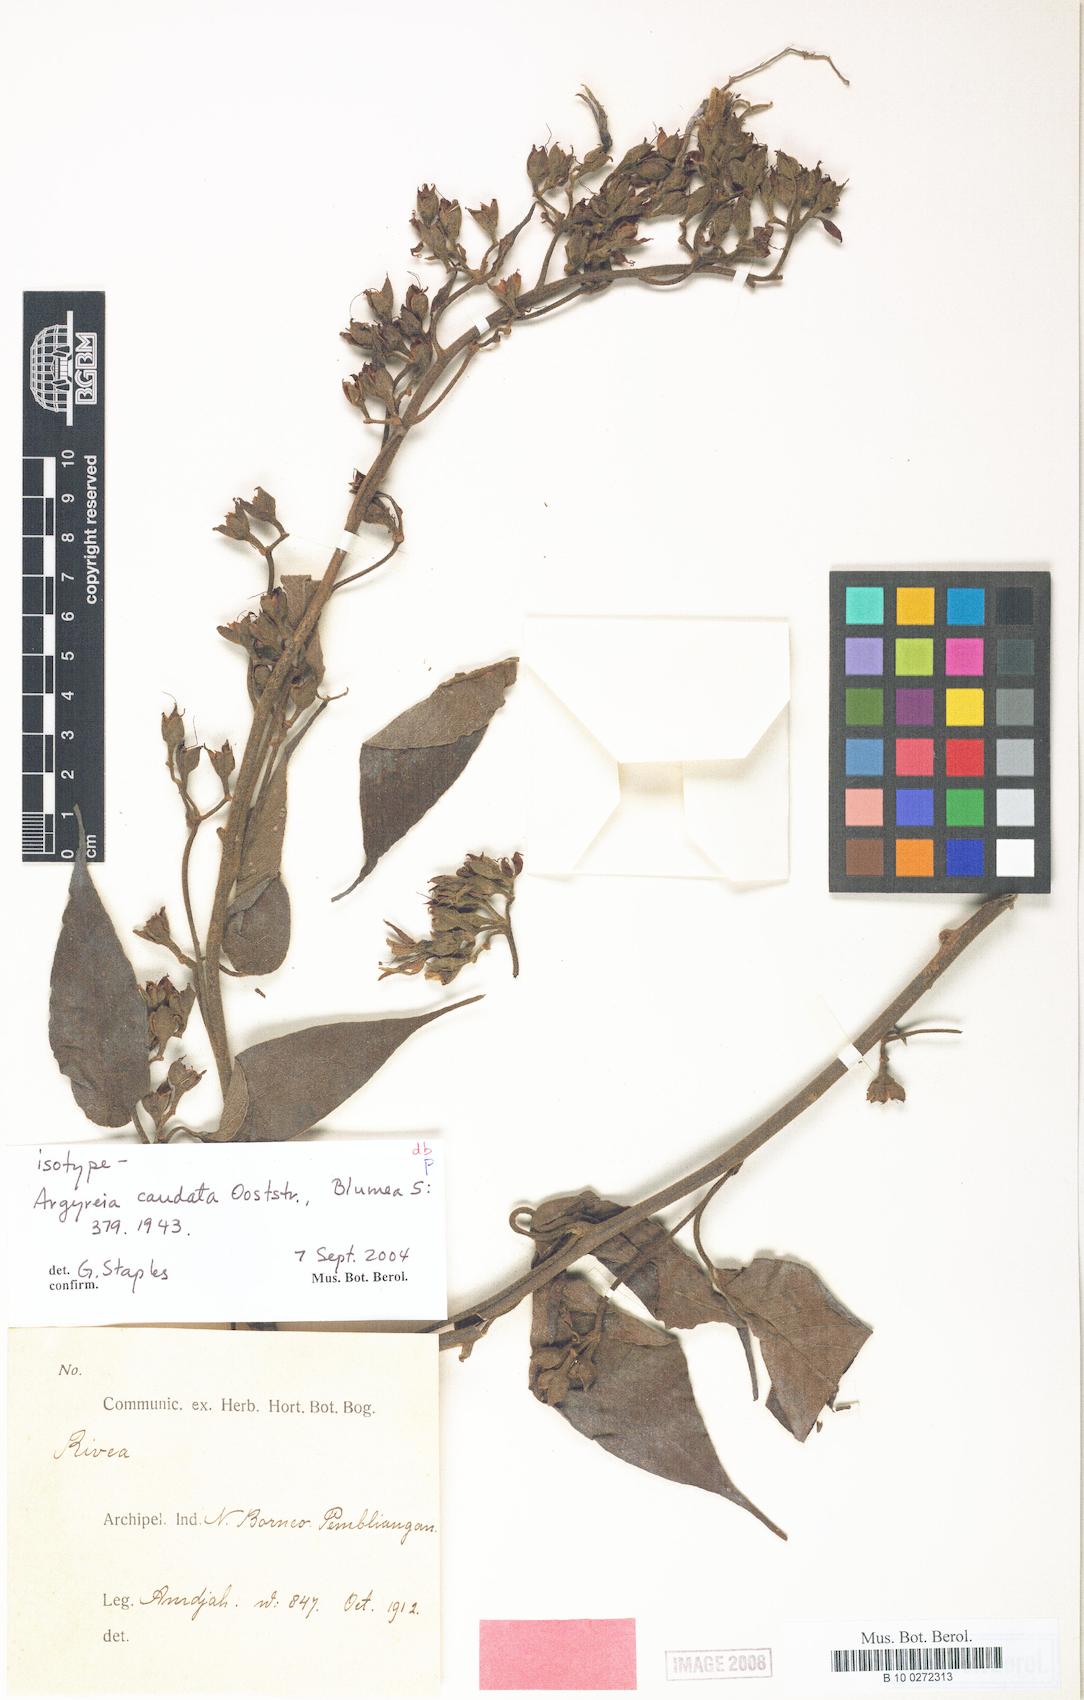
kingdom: Plantae
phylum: Tracheophyta
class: Magnoliopsida
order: Solanales
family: Convolvulaceae
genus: Argyreia
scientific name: Argyreia caudata
